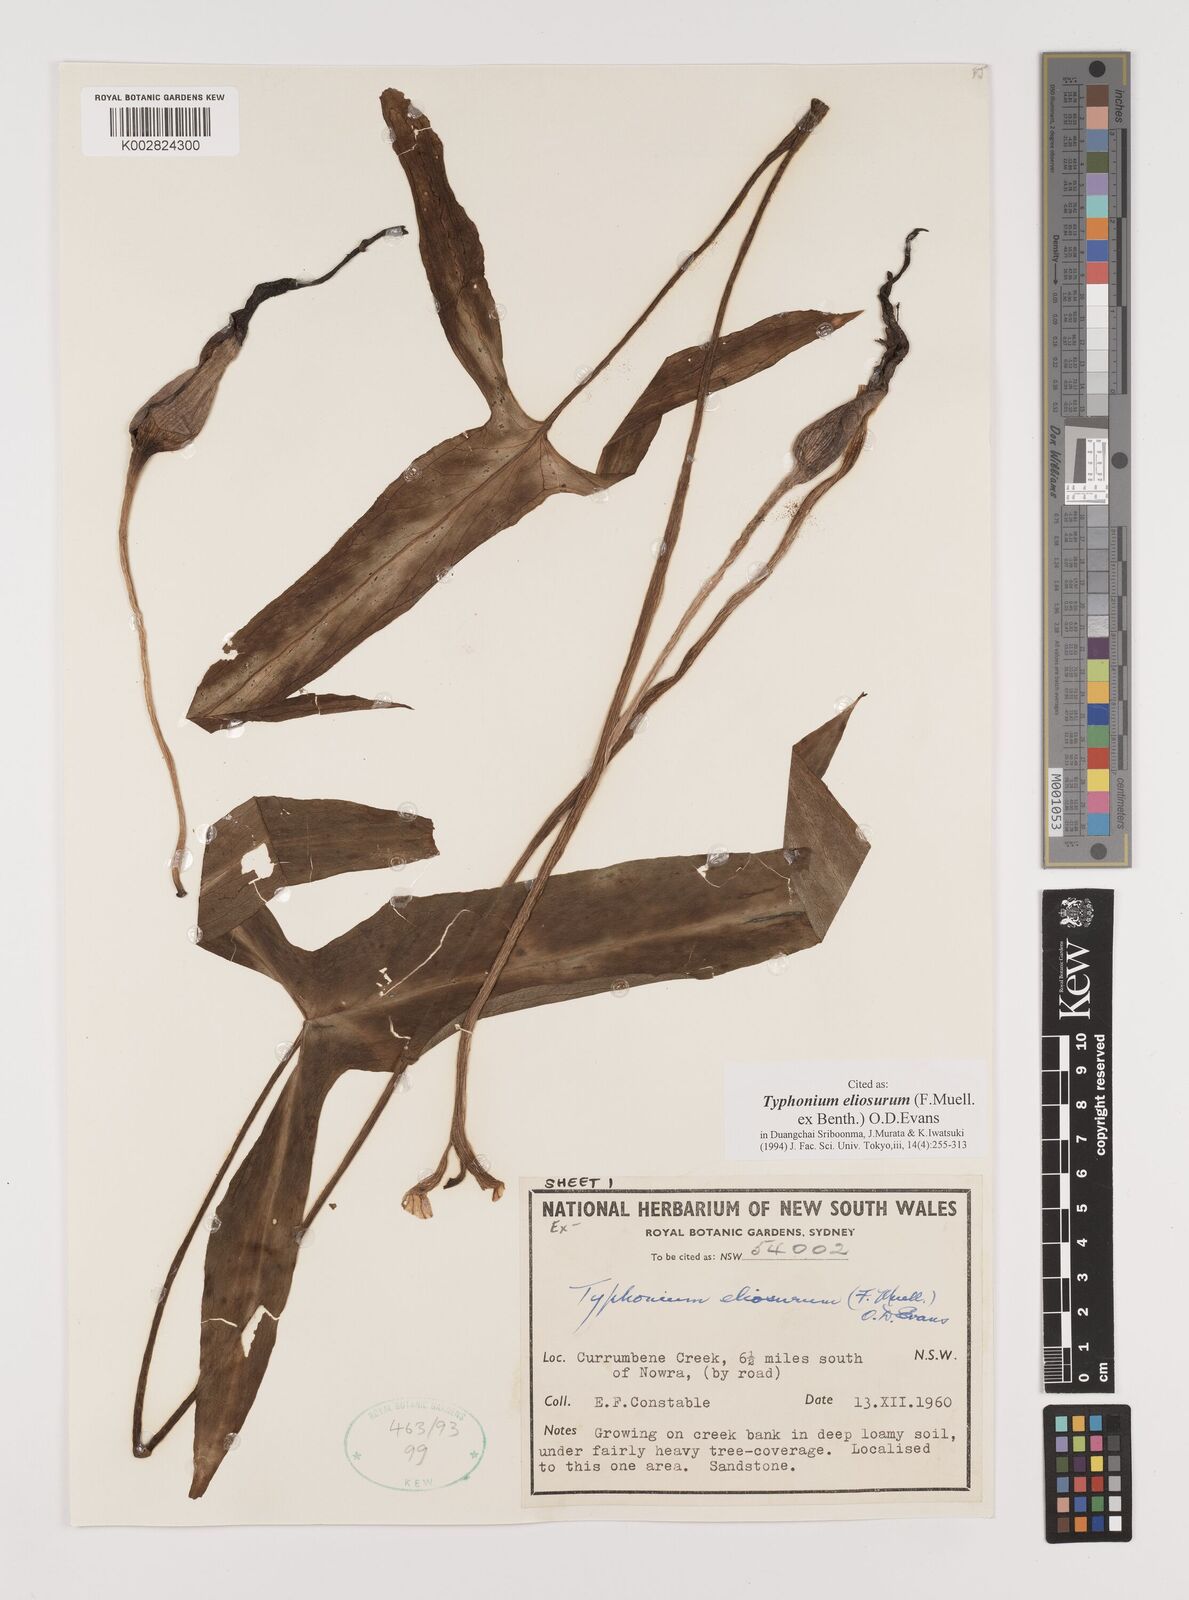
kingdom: Plantae
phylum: Tracheophyta
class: Liliopsida
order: Alismatales
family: Araceae
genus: Typhonium
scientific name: Typhonium eliosurum
